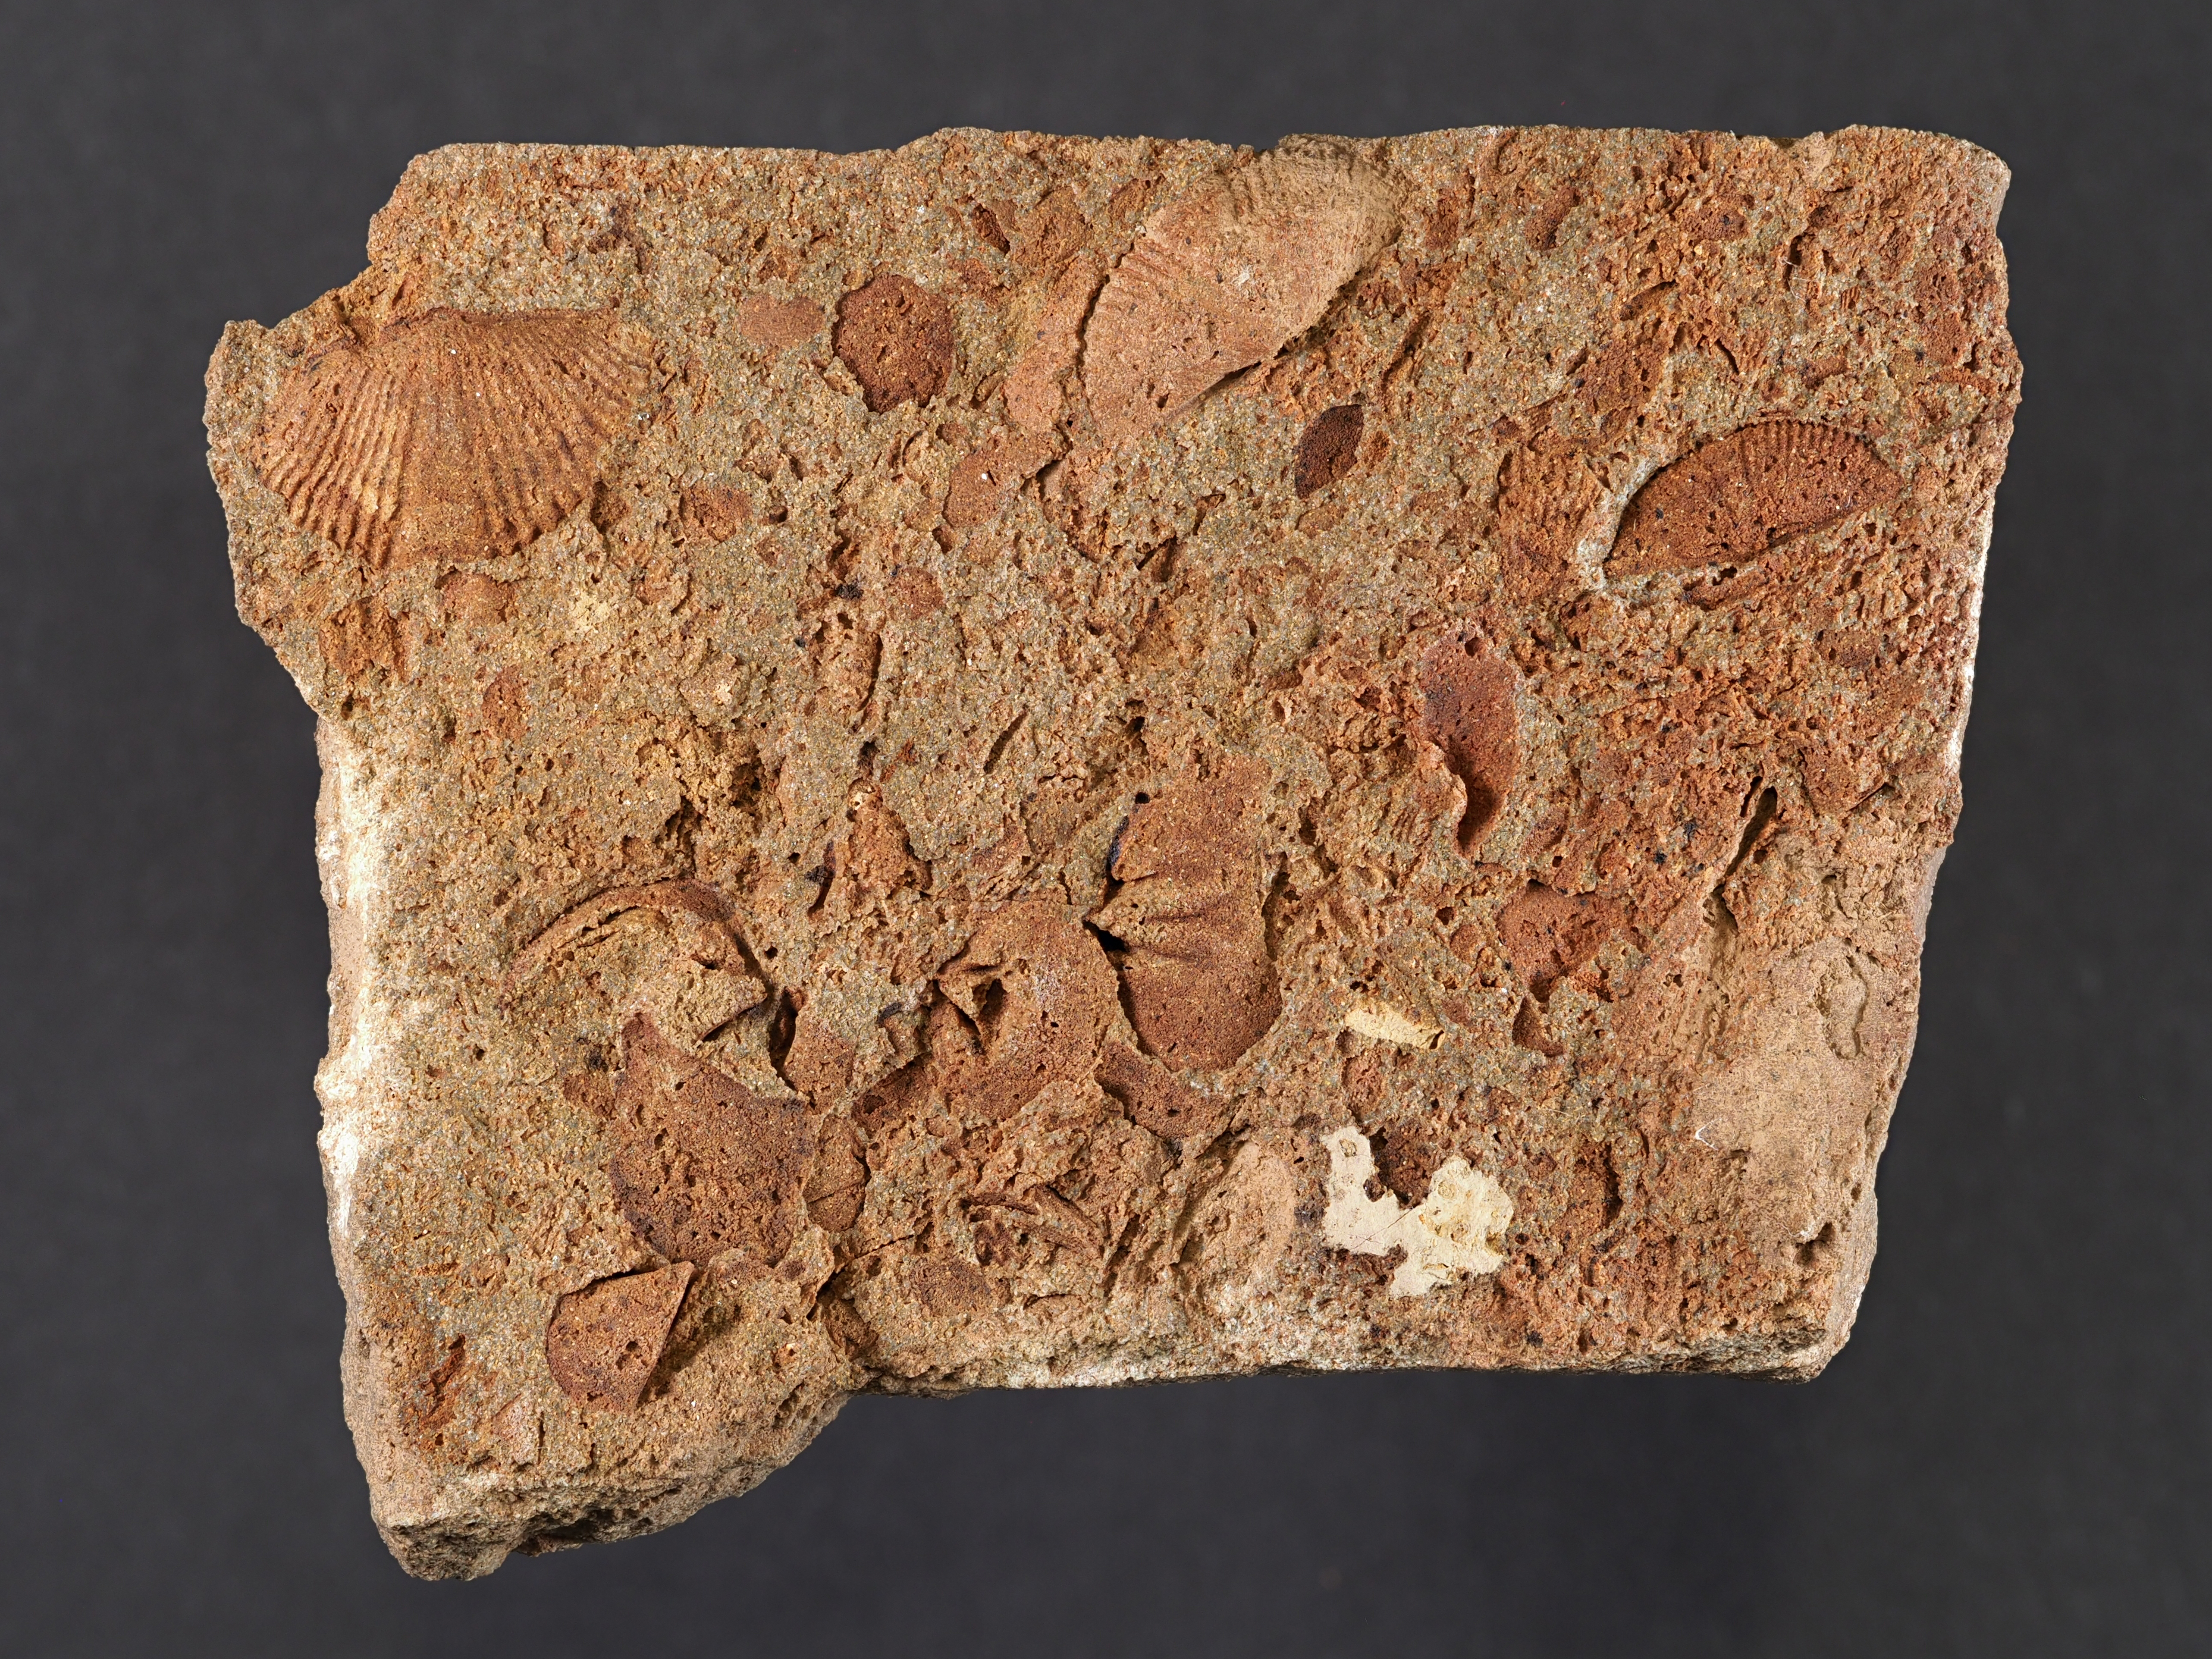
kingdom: Animalia
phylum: Brachiopoda
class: Rhynchonellata
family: Rhipidomellidae
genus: Platyorthis
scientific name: Platyorthis
